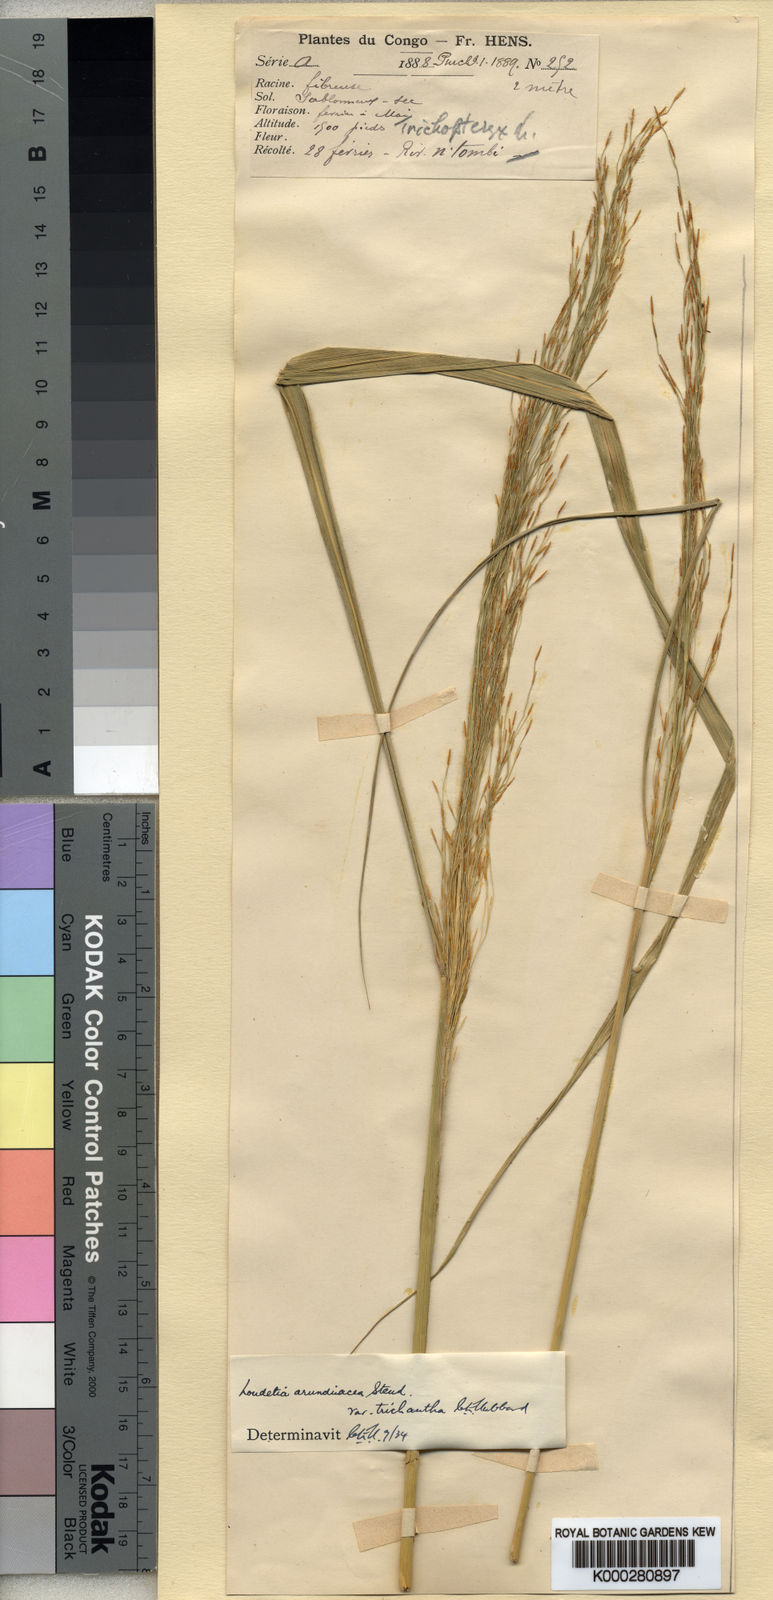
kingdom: Plantae
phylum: Tracheophyta
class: Liliopsida
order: Poales
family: Poaceae
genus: Loudetia
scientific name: Loudetia arundinacea
